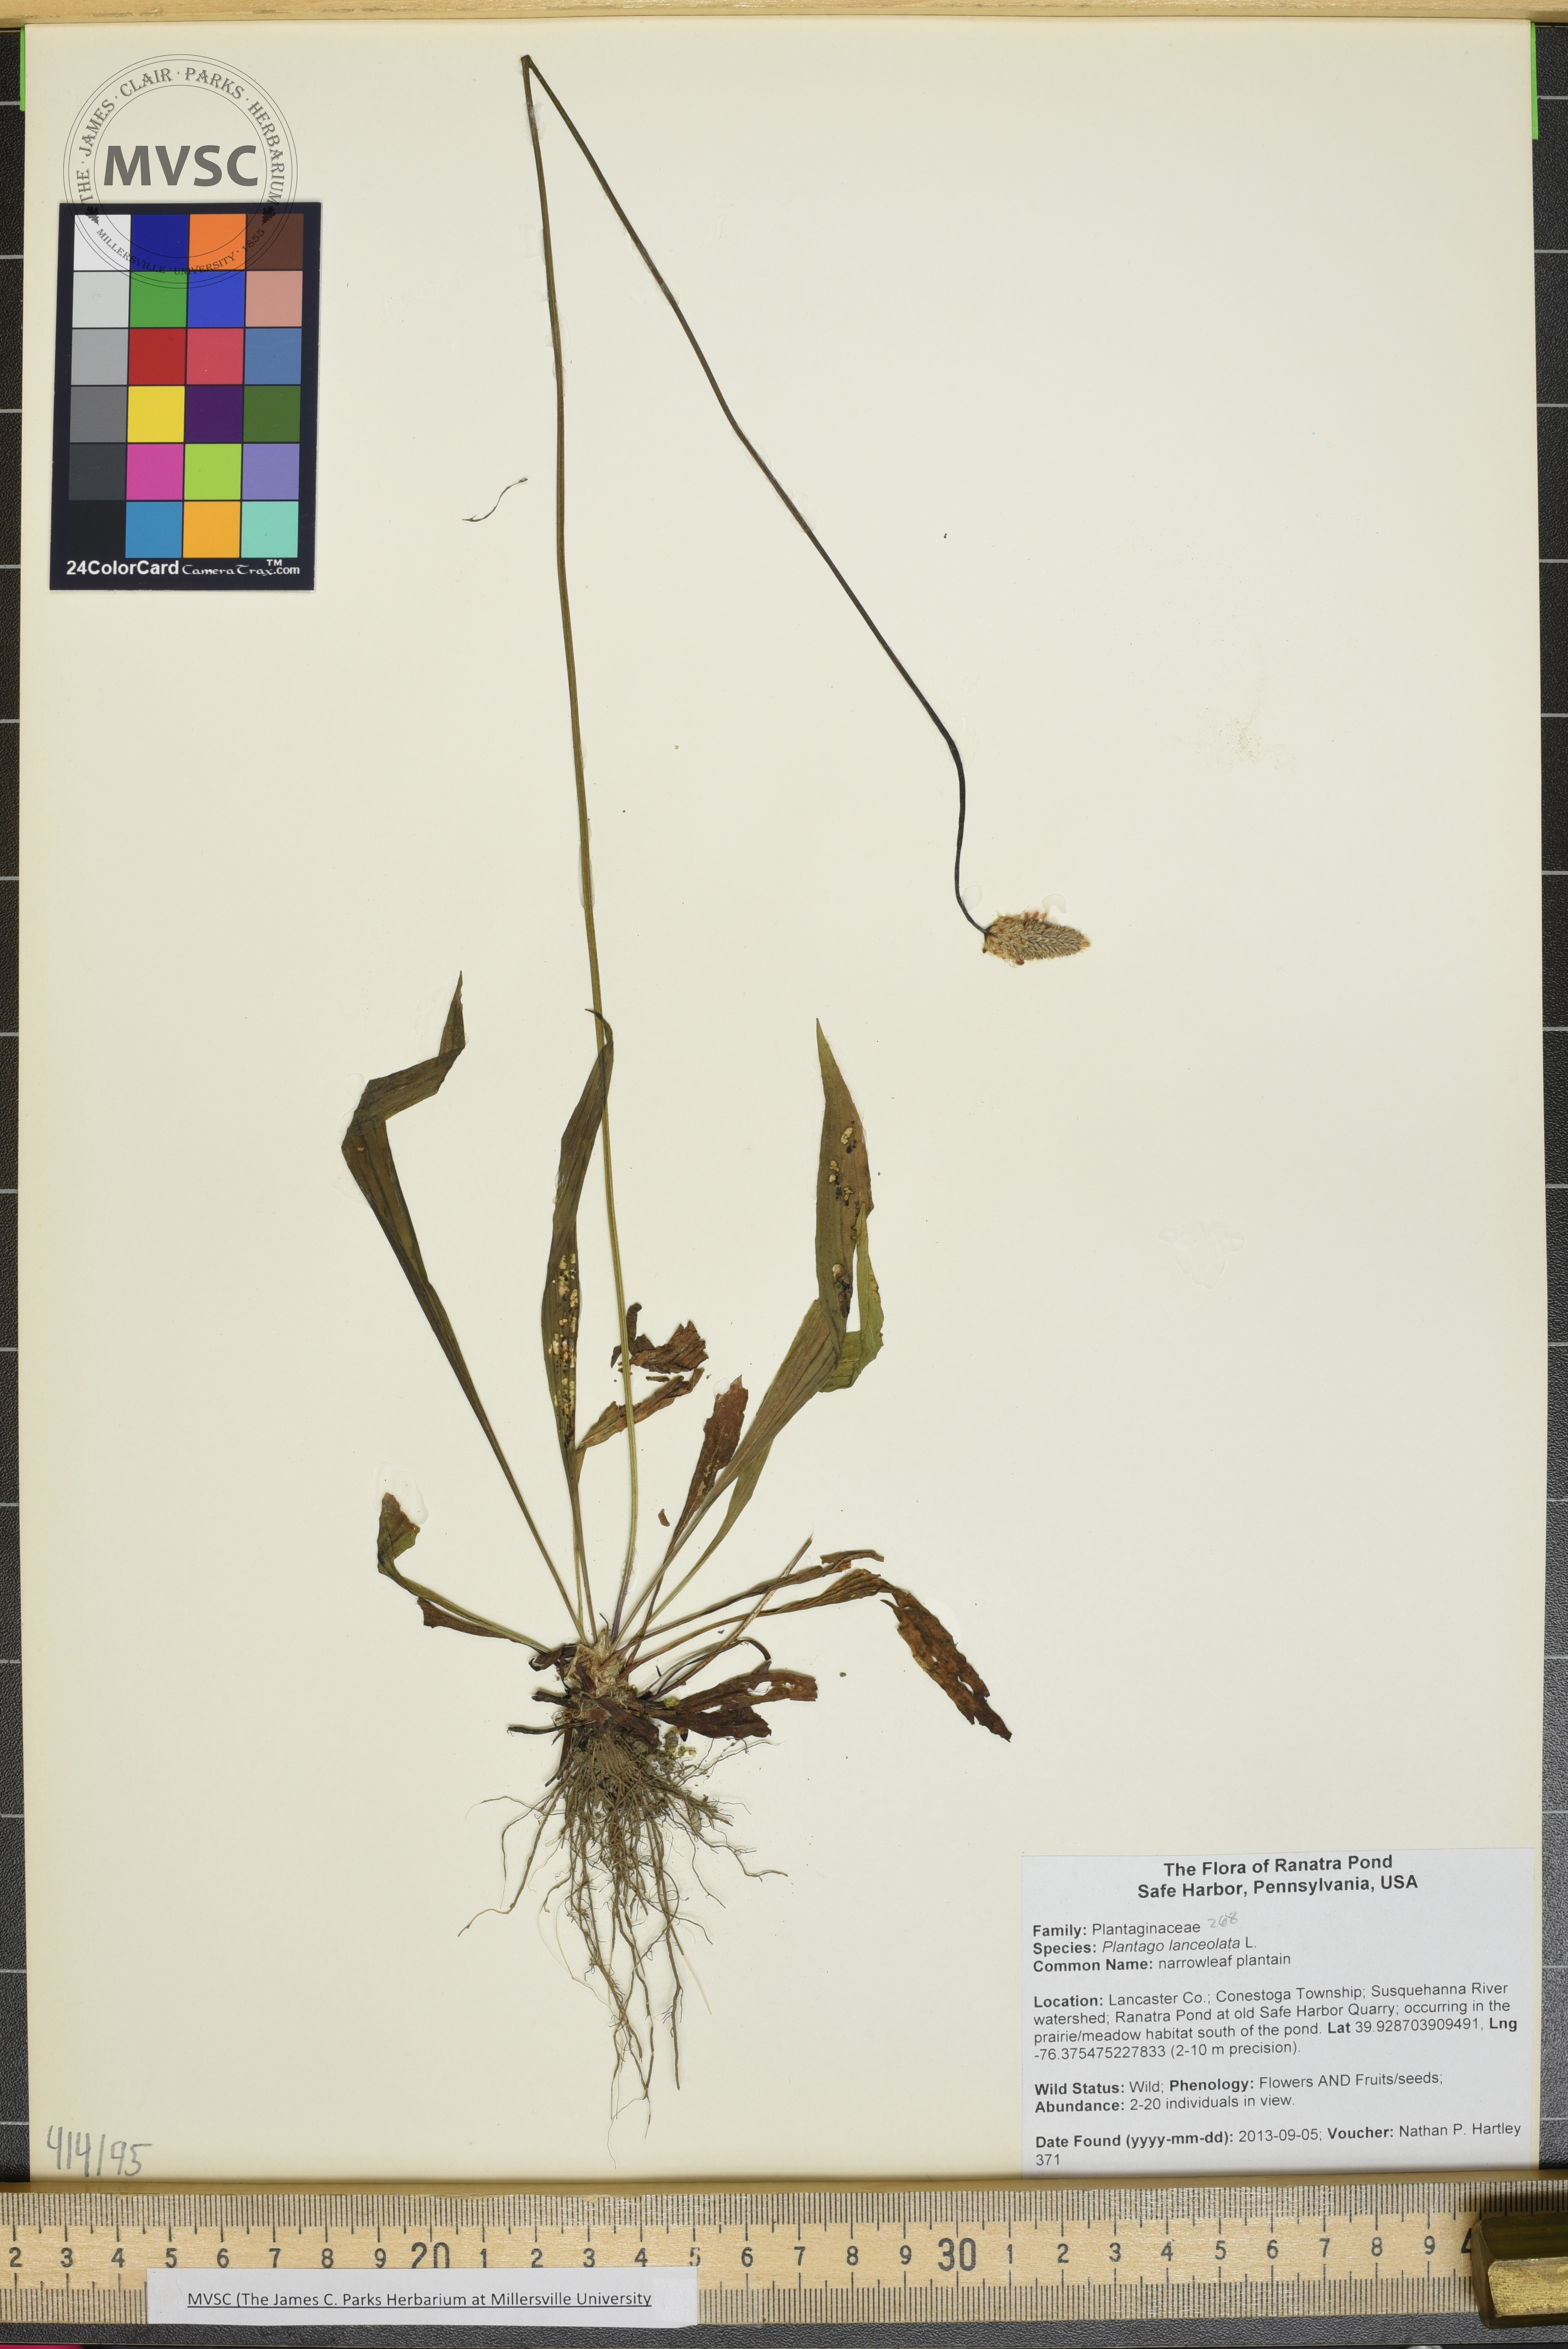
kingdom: Plantae
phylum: Tracheophyta
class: Magnoliopsida
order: Lamiales
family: Plantaginaceae
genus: Plantago
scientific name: Plantago lanceolata
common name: narrowleaf plantain
